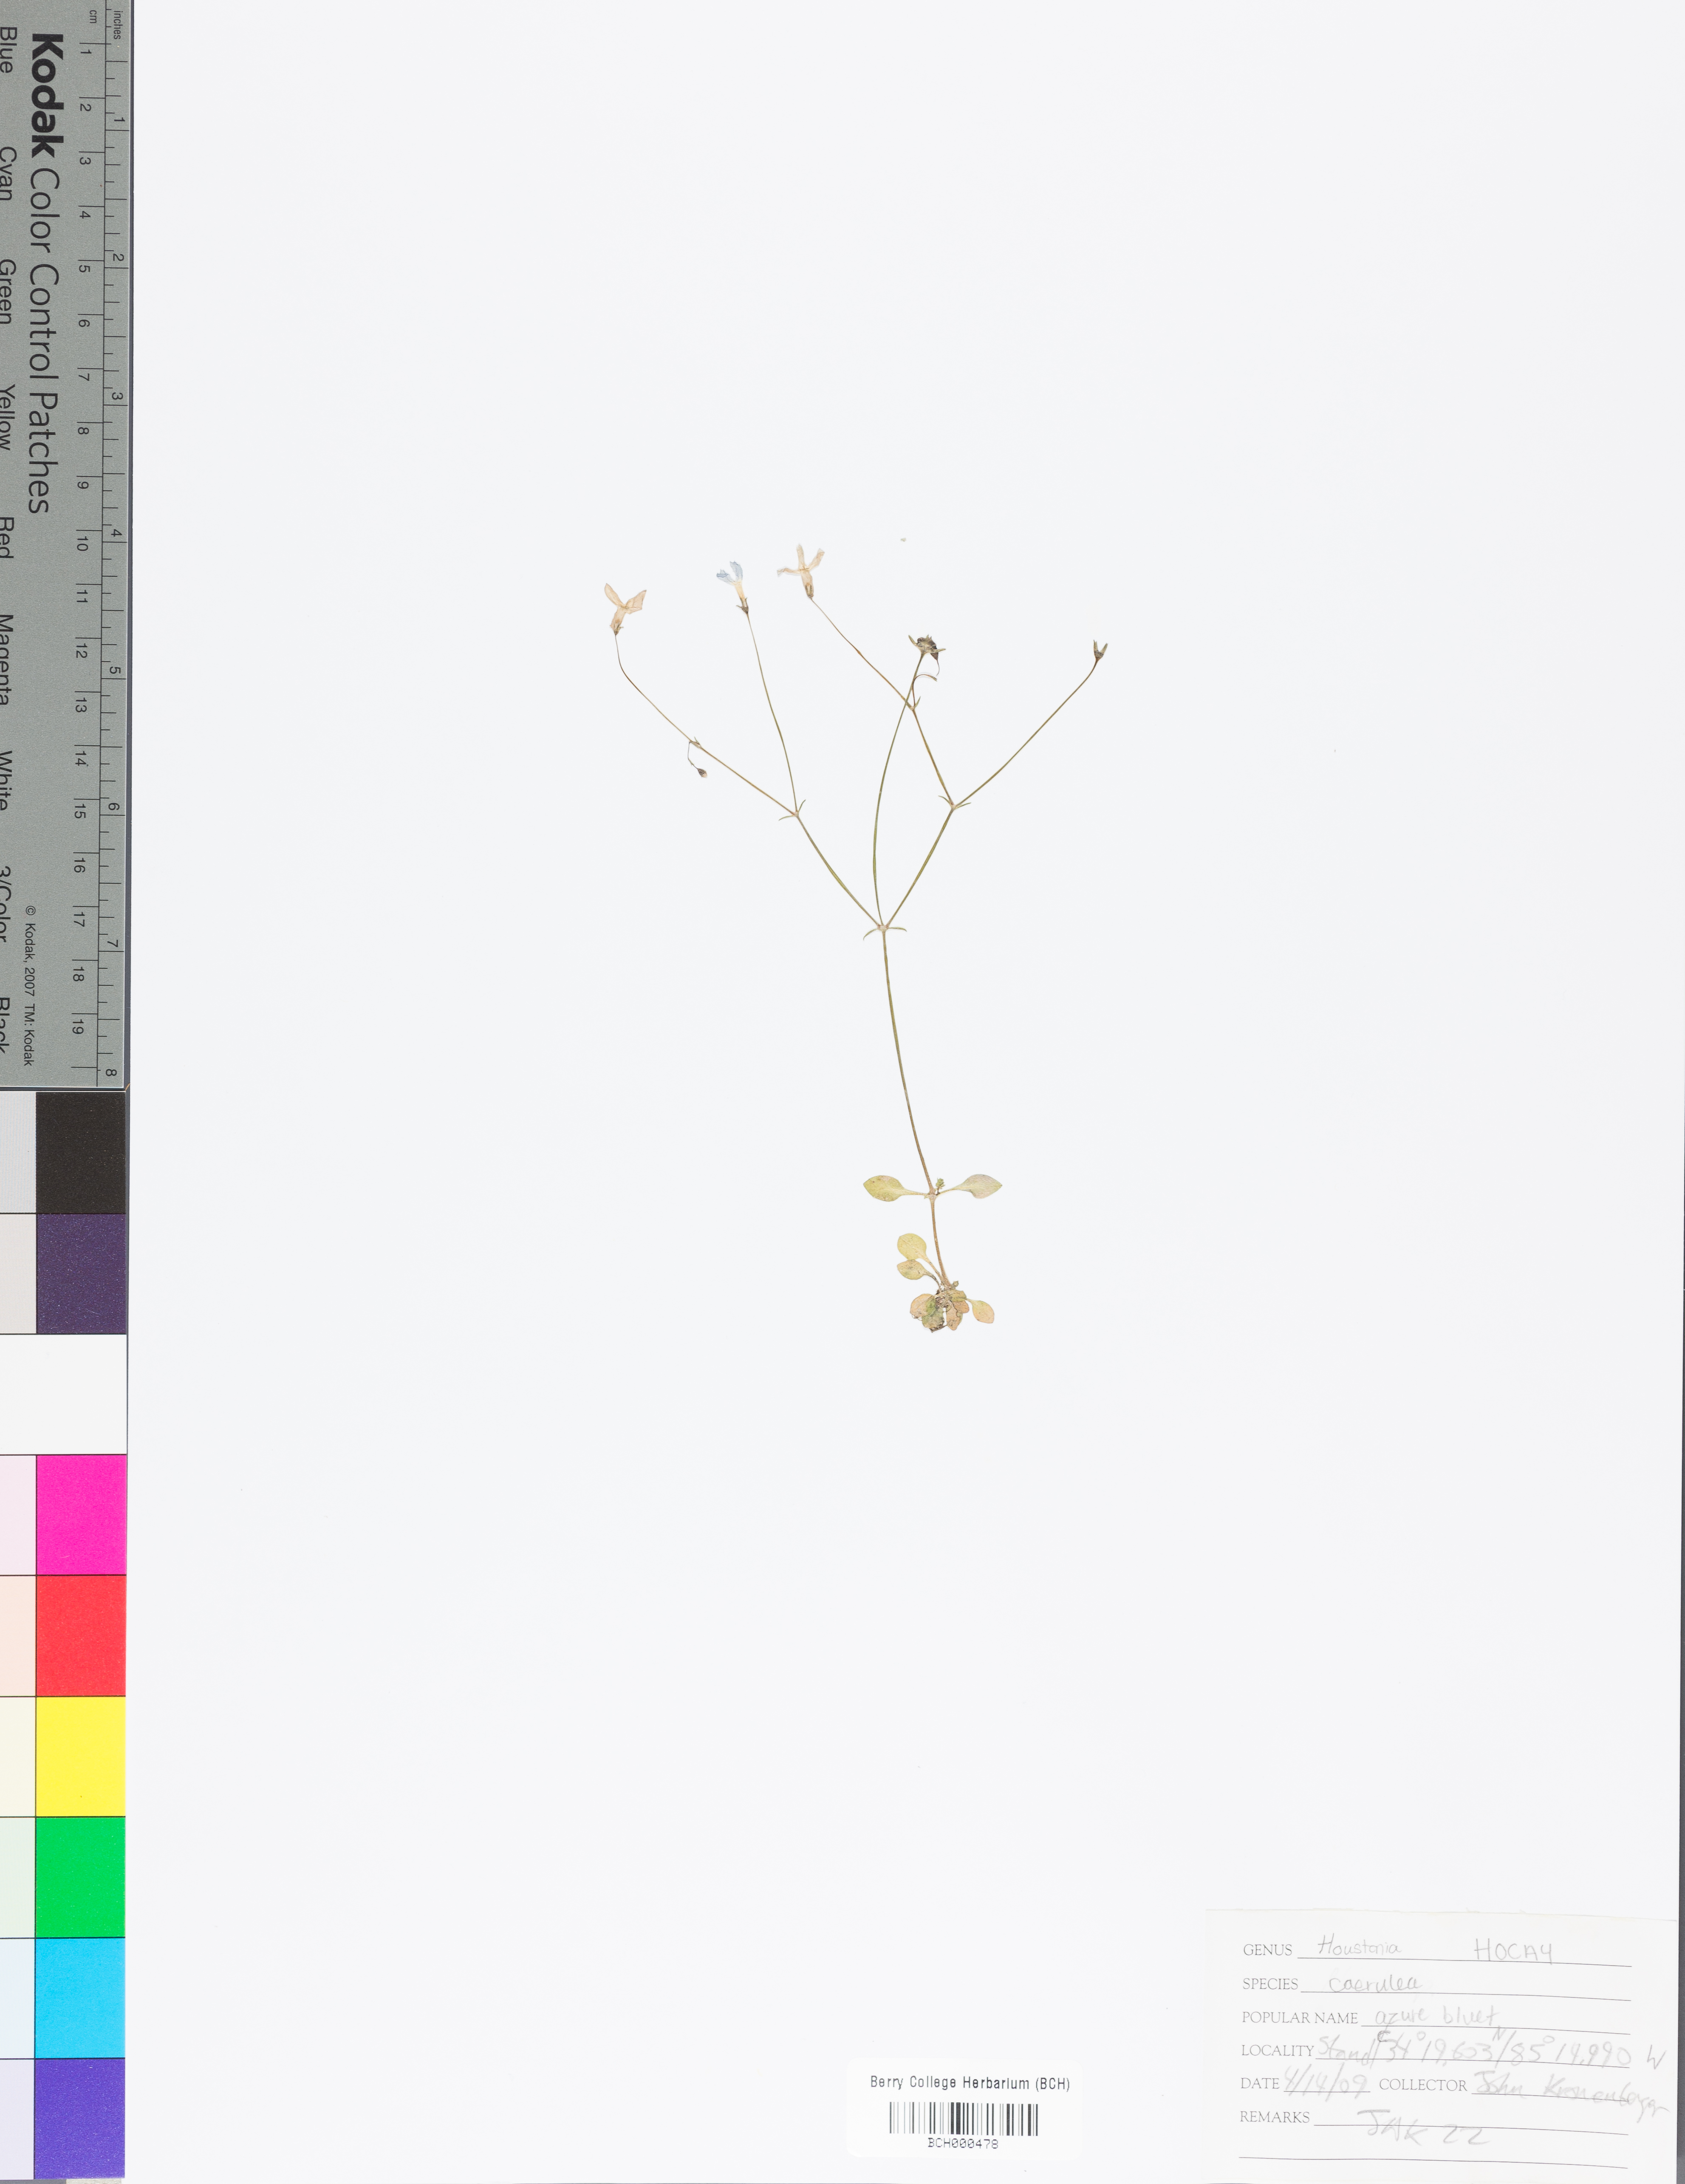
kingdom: Plantae
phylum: Tracheophyta
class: Magnoliopsida
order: Gentianales
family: Rubiaceae
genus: Houstonia
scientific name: Houstonia caerulea
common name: Bluets
